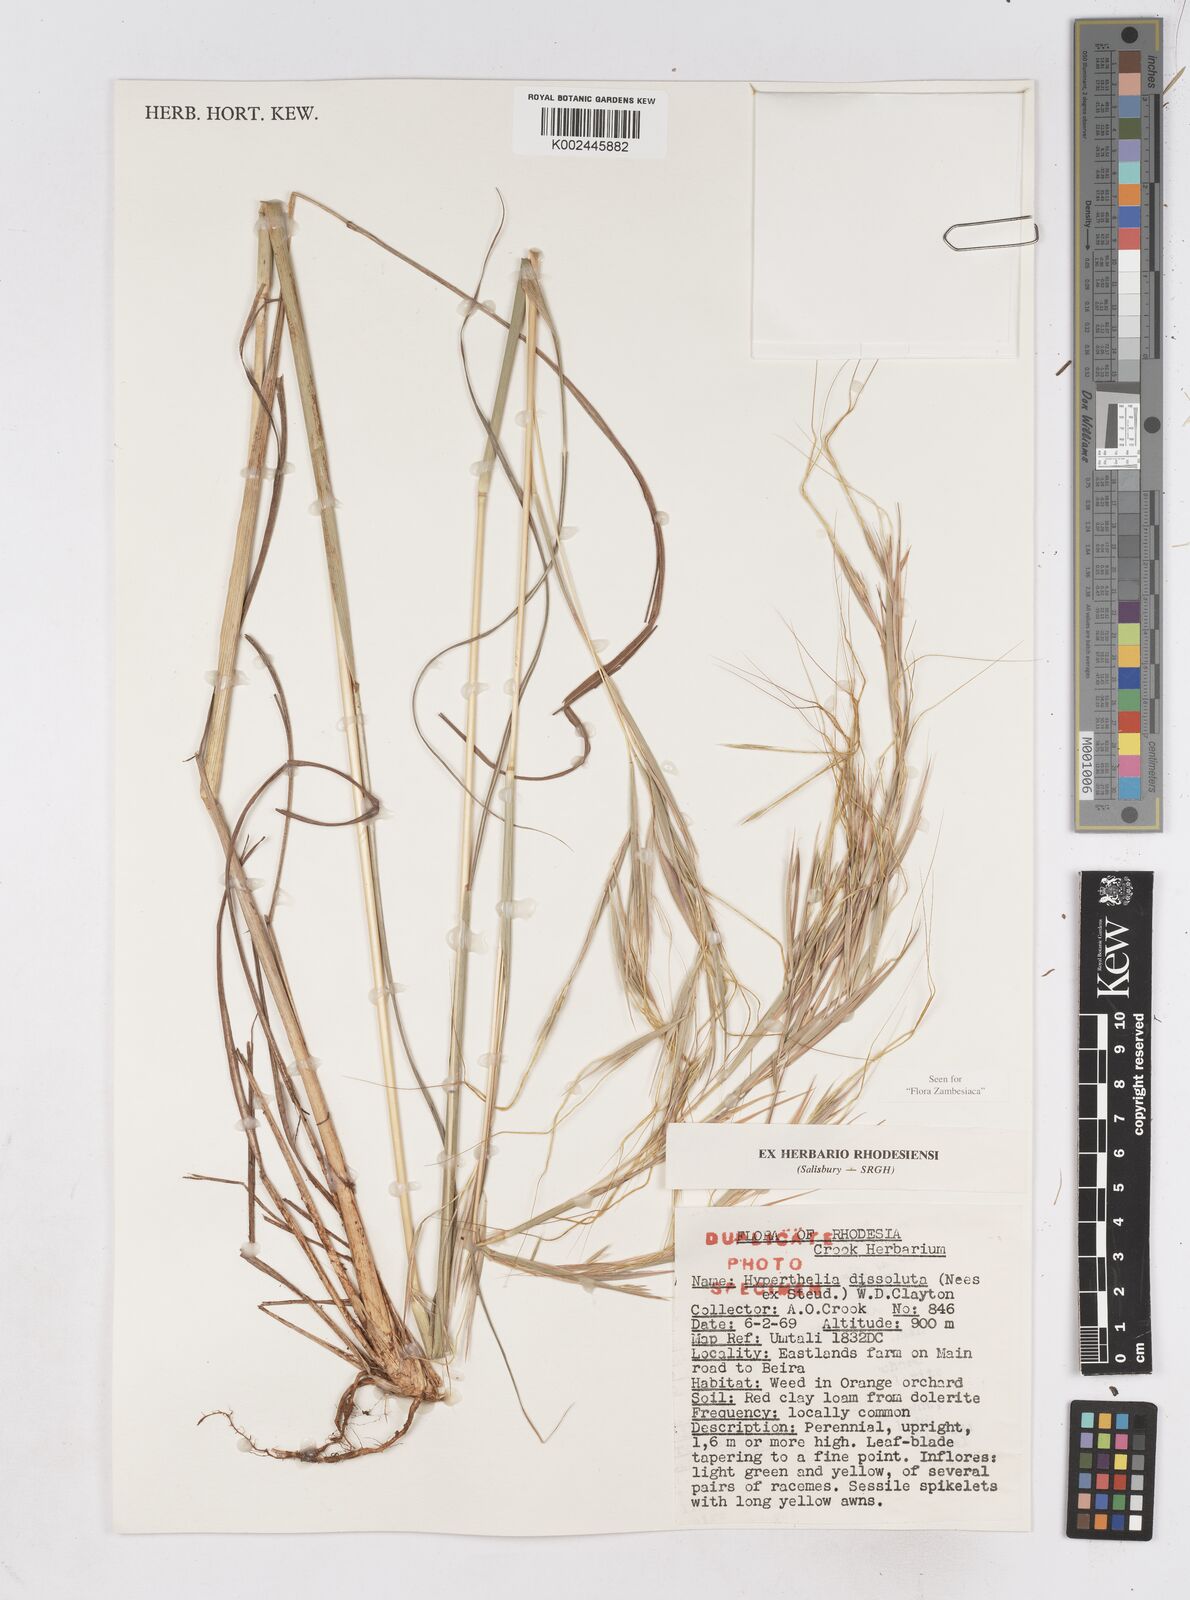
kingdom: Plantae
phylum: Tracheophyta
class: Liliopsida
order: Poales
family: Poaceae
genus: Hyperthelia
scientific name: Hyperthelia dissoluta
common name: Yellow thatching grass
